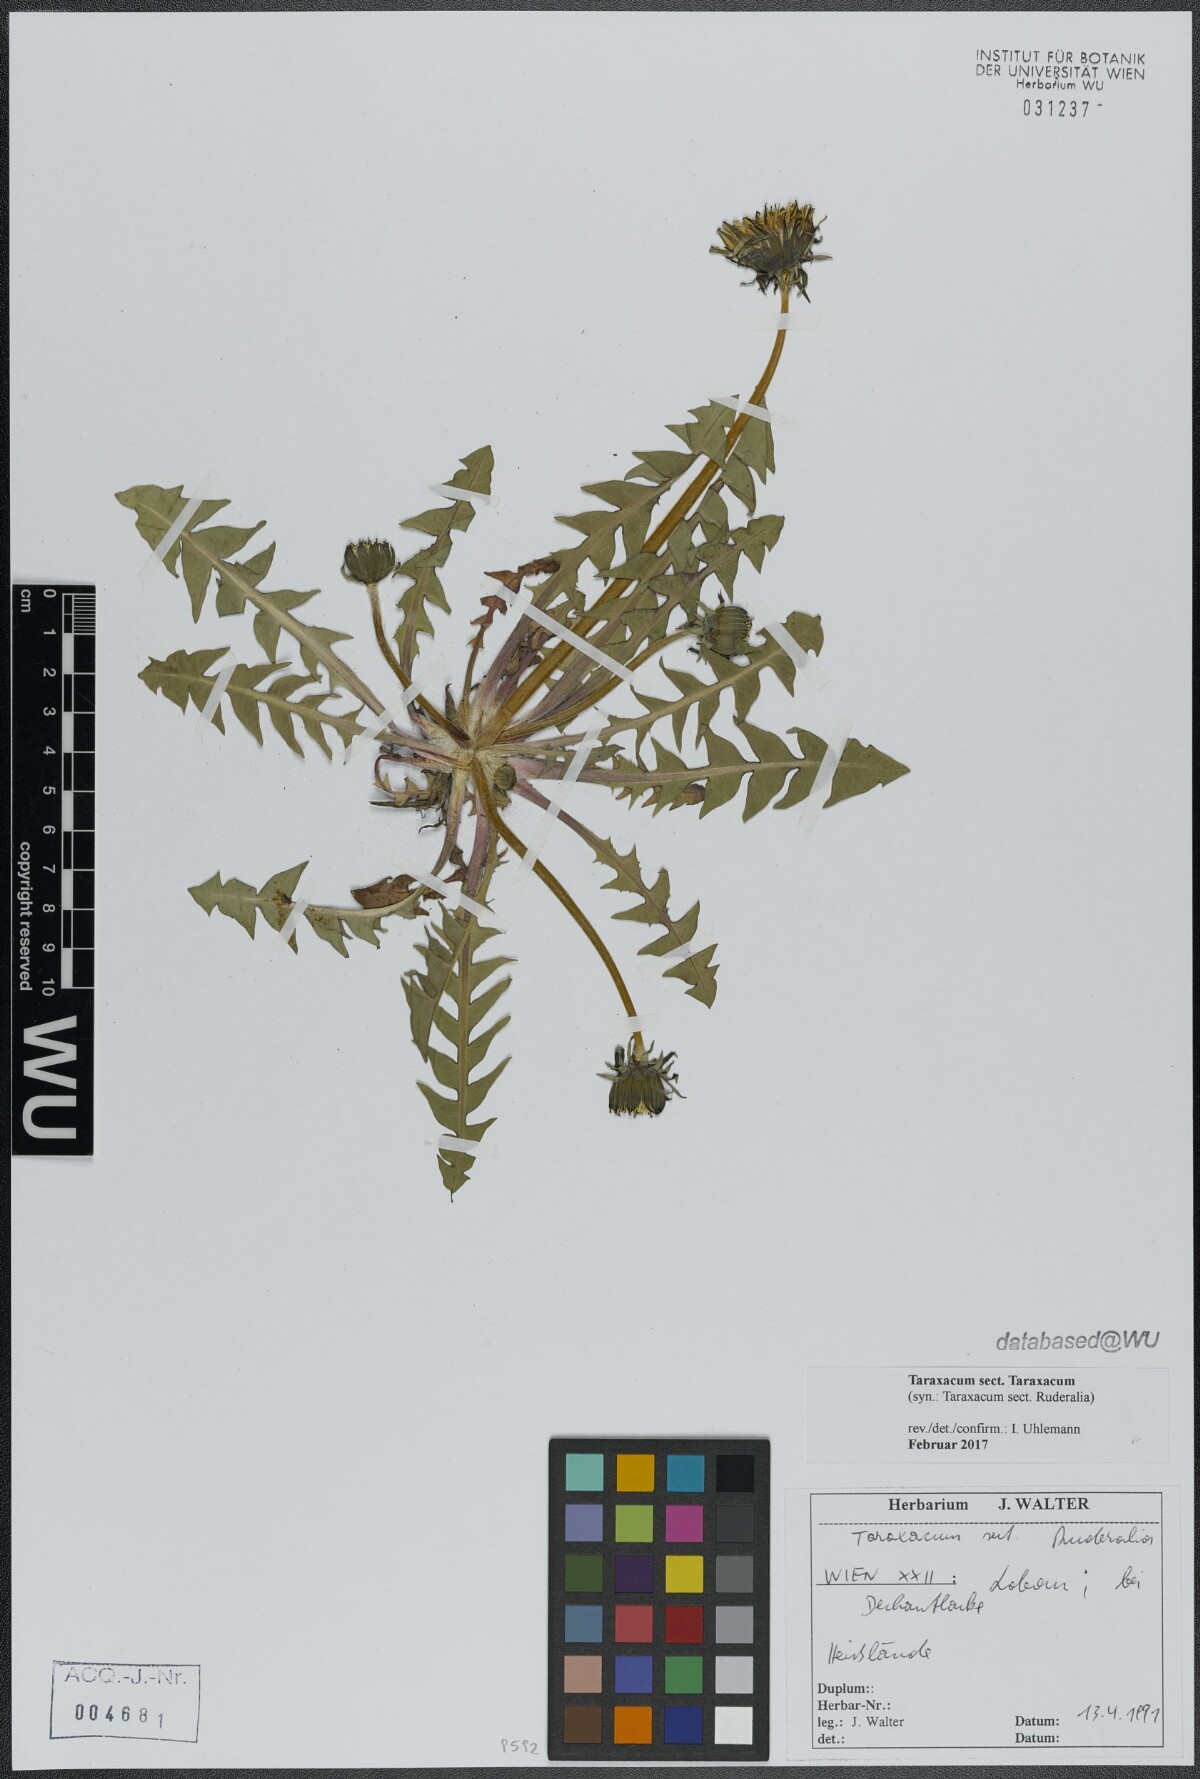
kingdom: Plantae
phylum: Tracheophyta
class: Magnoliopsida
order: Asterales
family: Asteraceae
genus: Taraxacum
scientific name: Taraxacum
